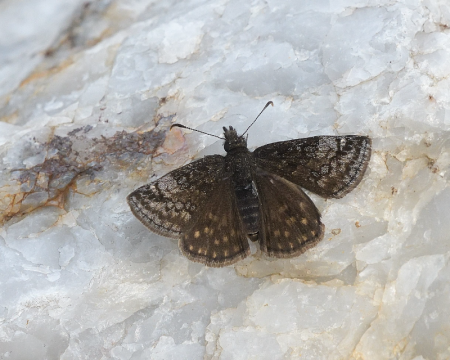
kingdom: Animalia
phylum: Arthropoda
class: Insecta
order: Lepidoptera
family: Hesperiidae
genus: Erynnis
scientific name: Erynnis icelus
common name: Dreamy Duskywing
